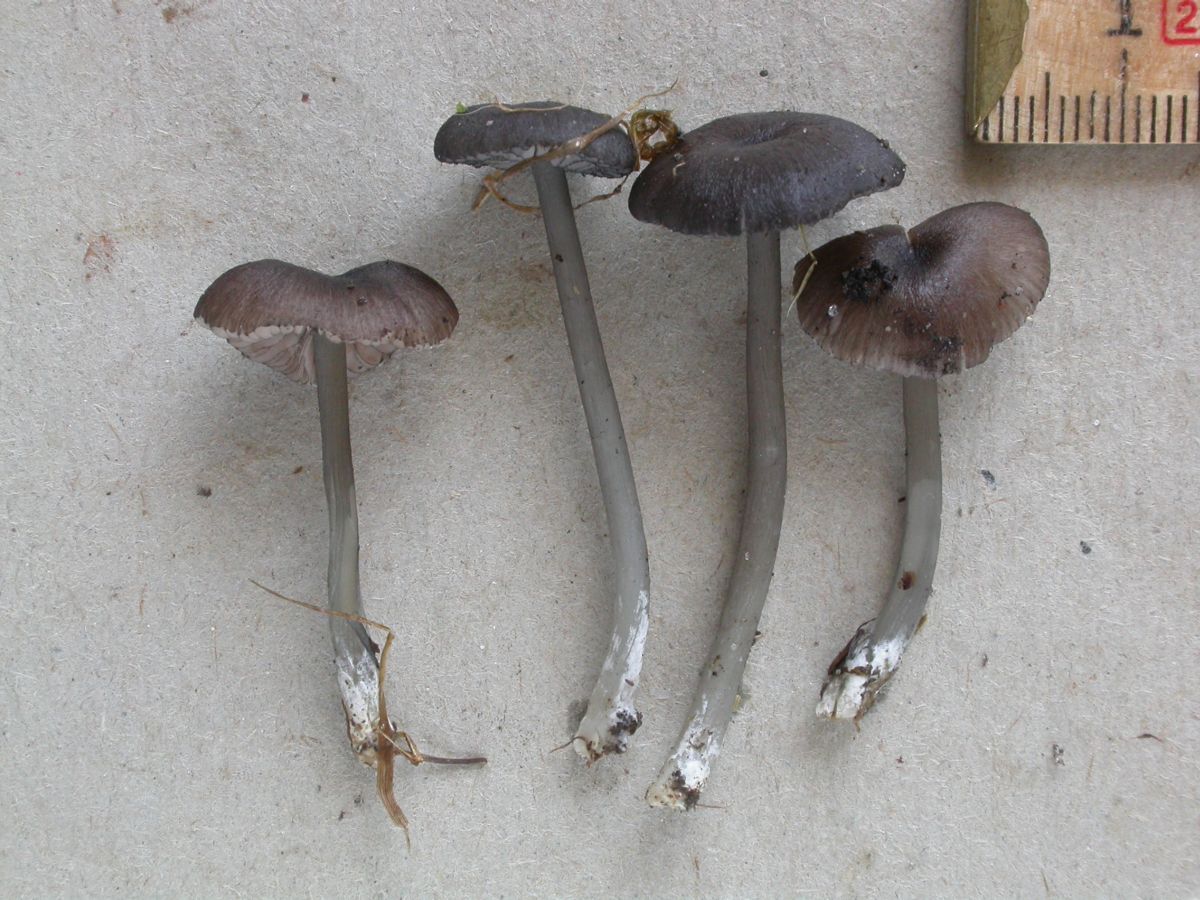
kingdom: Fungi
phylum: Basidiomycota
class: Agaricomycetes
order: Agaricales
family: Entolomataceae
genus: Entoloma
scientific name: Entoloma
